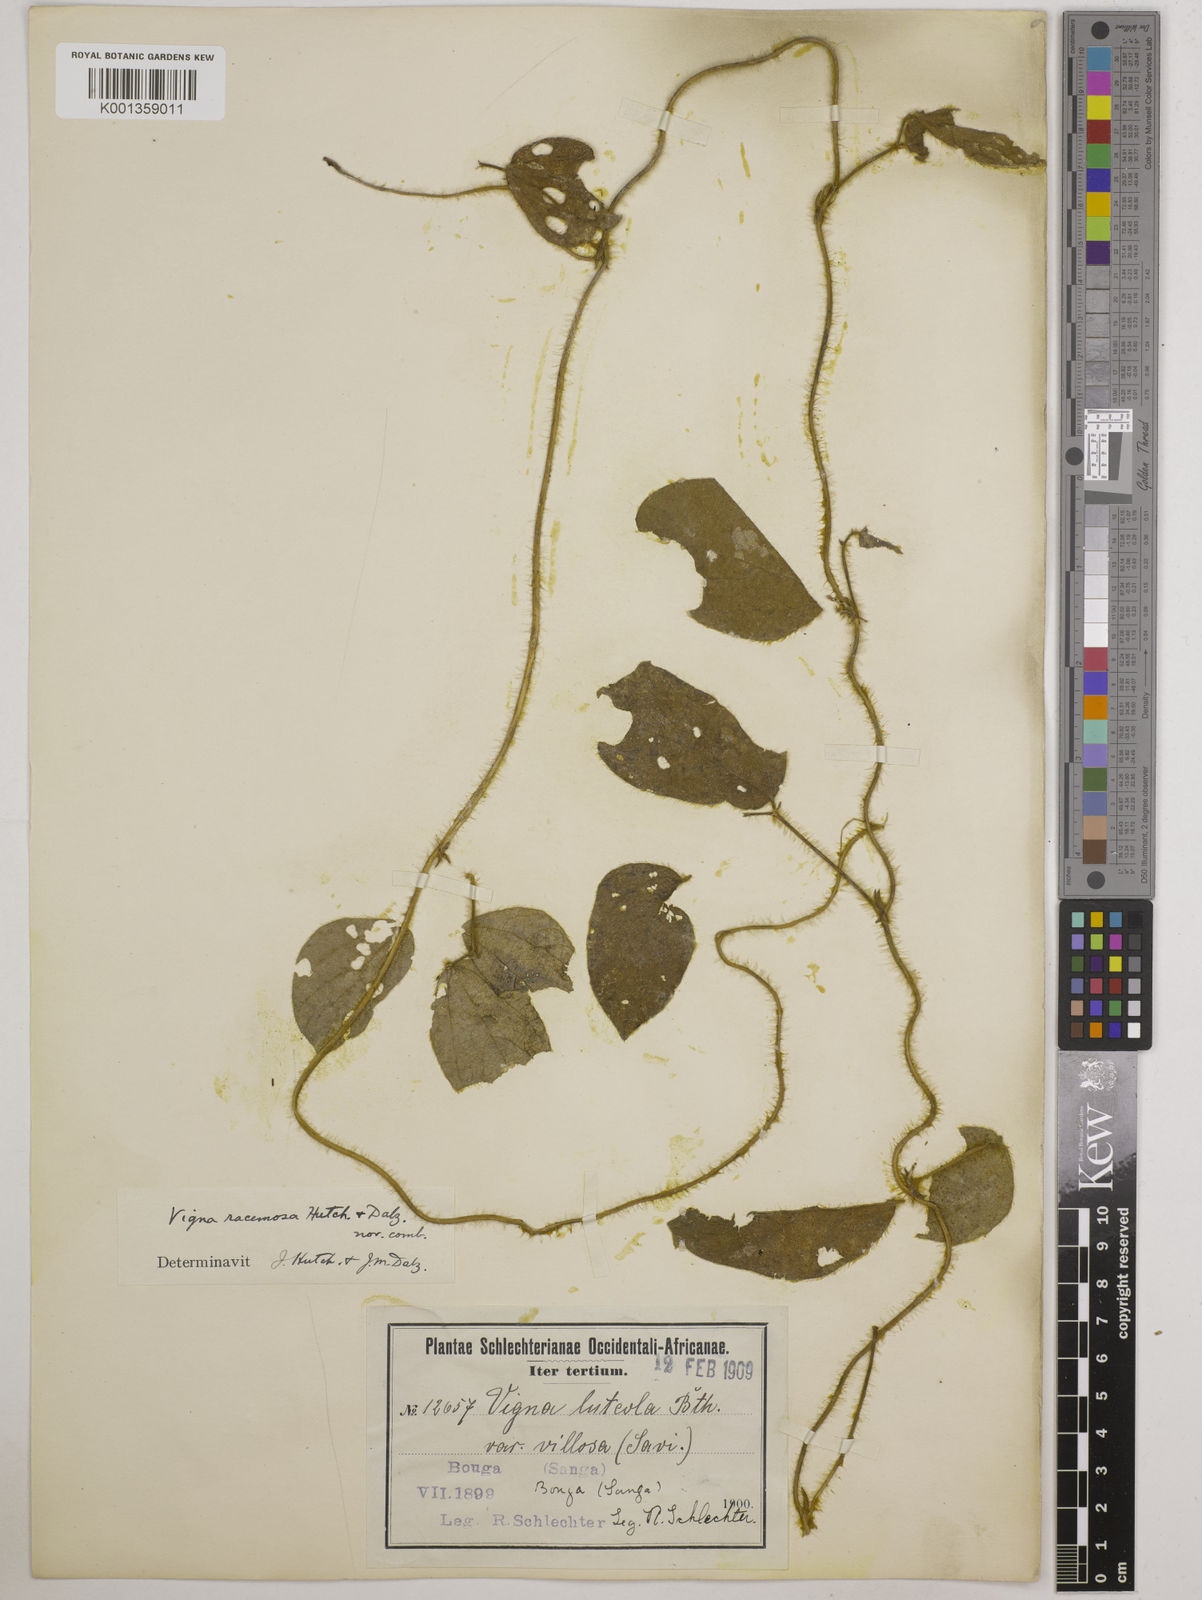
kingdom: Plantae
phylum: Tracheophyta
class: Magnoliopsida
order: Fabales
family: Fabaceae
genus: Vigna
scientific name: Vigna racemosa
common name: Beans not eaten
